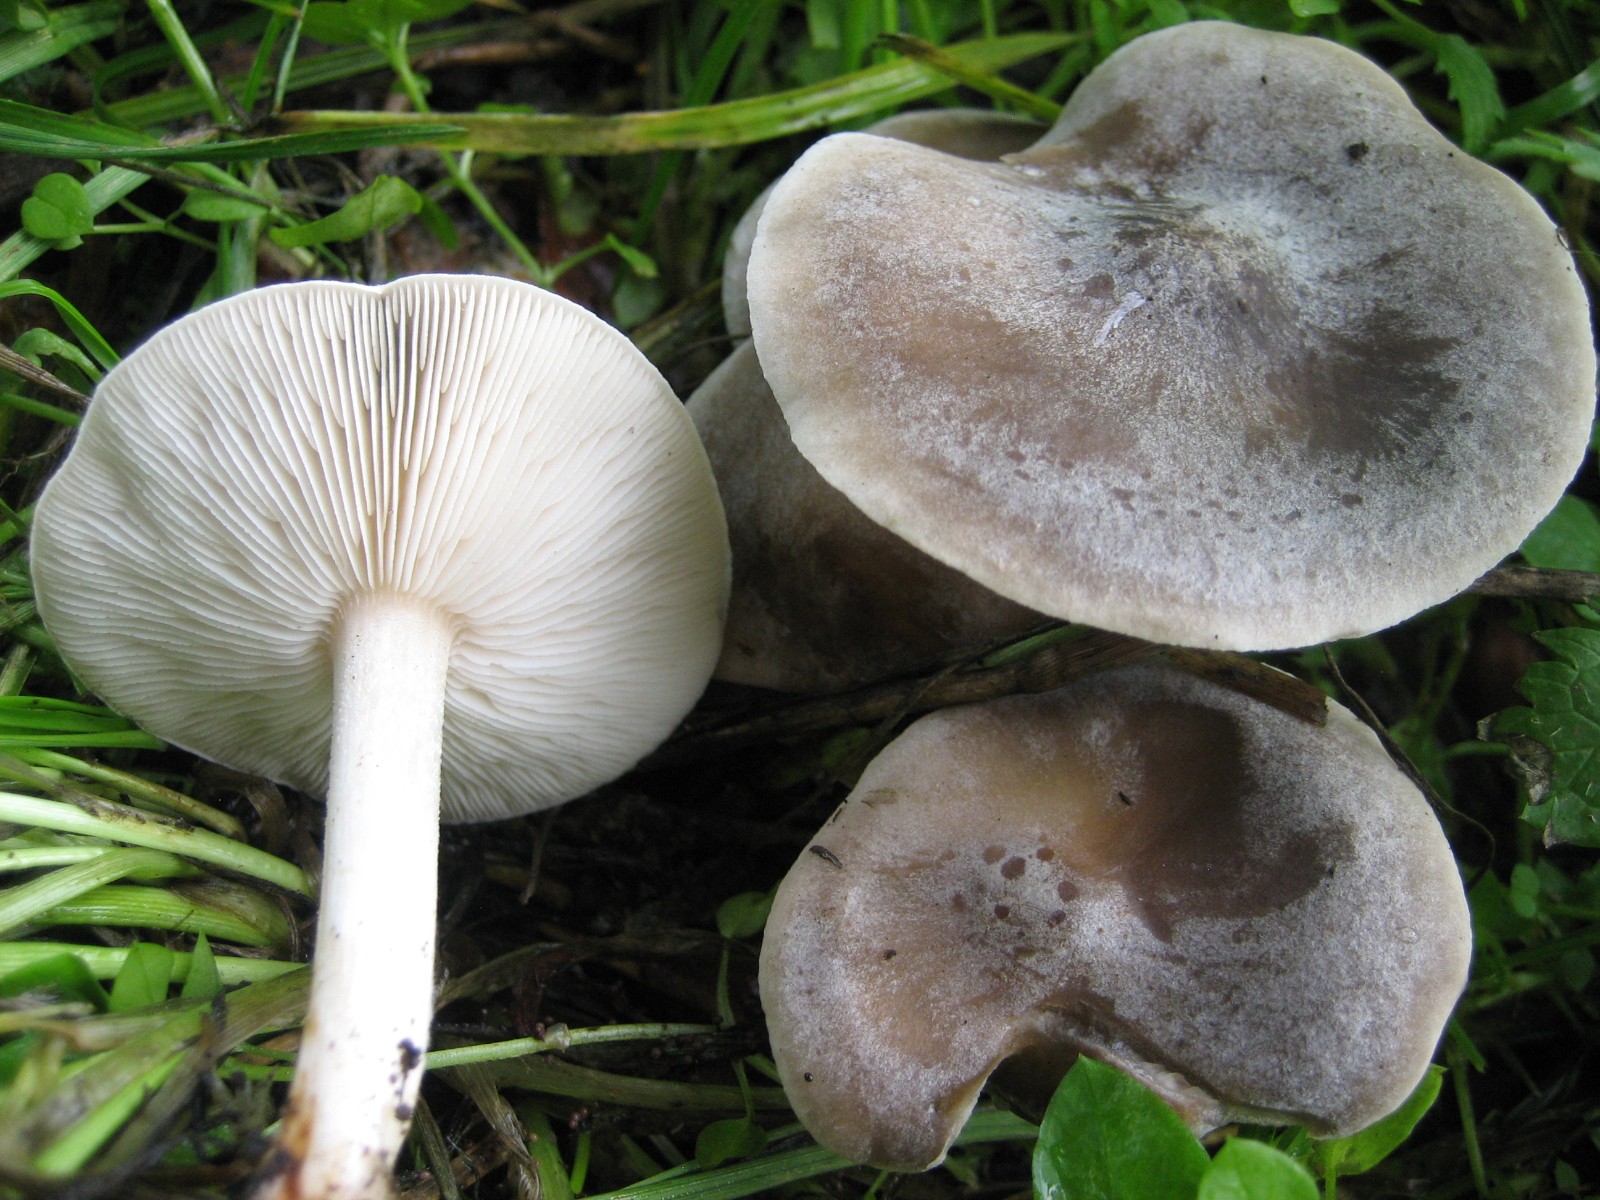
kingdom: Fungi
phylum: Basidiomycota
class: Agaricomycetes
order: Agaricales
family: Tricholomataceae
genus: Melanoleuca
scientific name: Melanoleuca exscissa
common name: gusten munkehat
